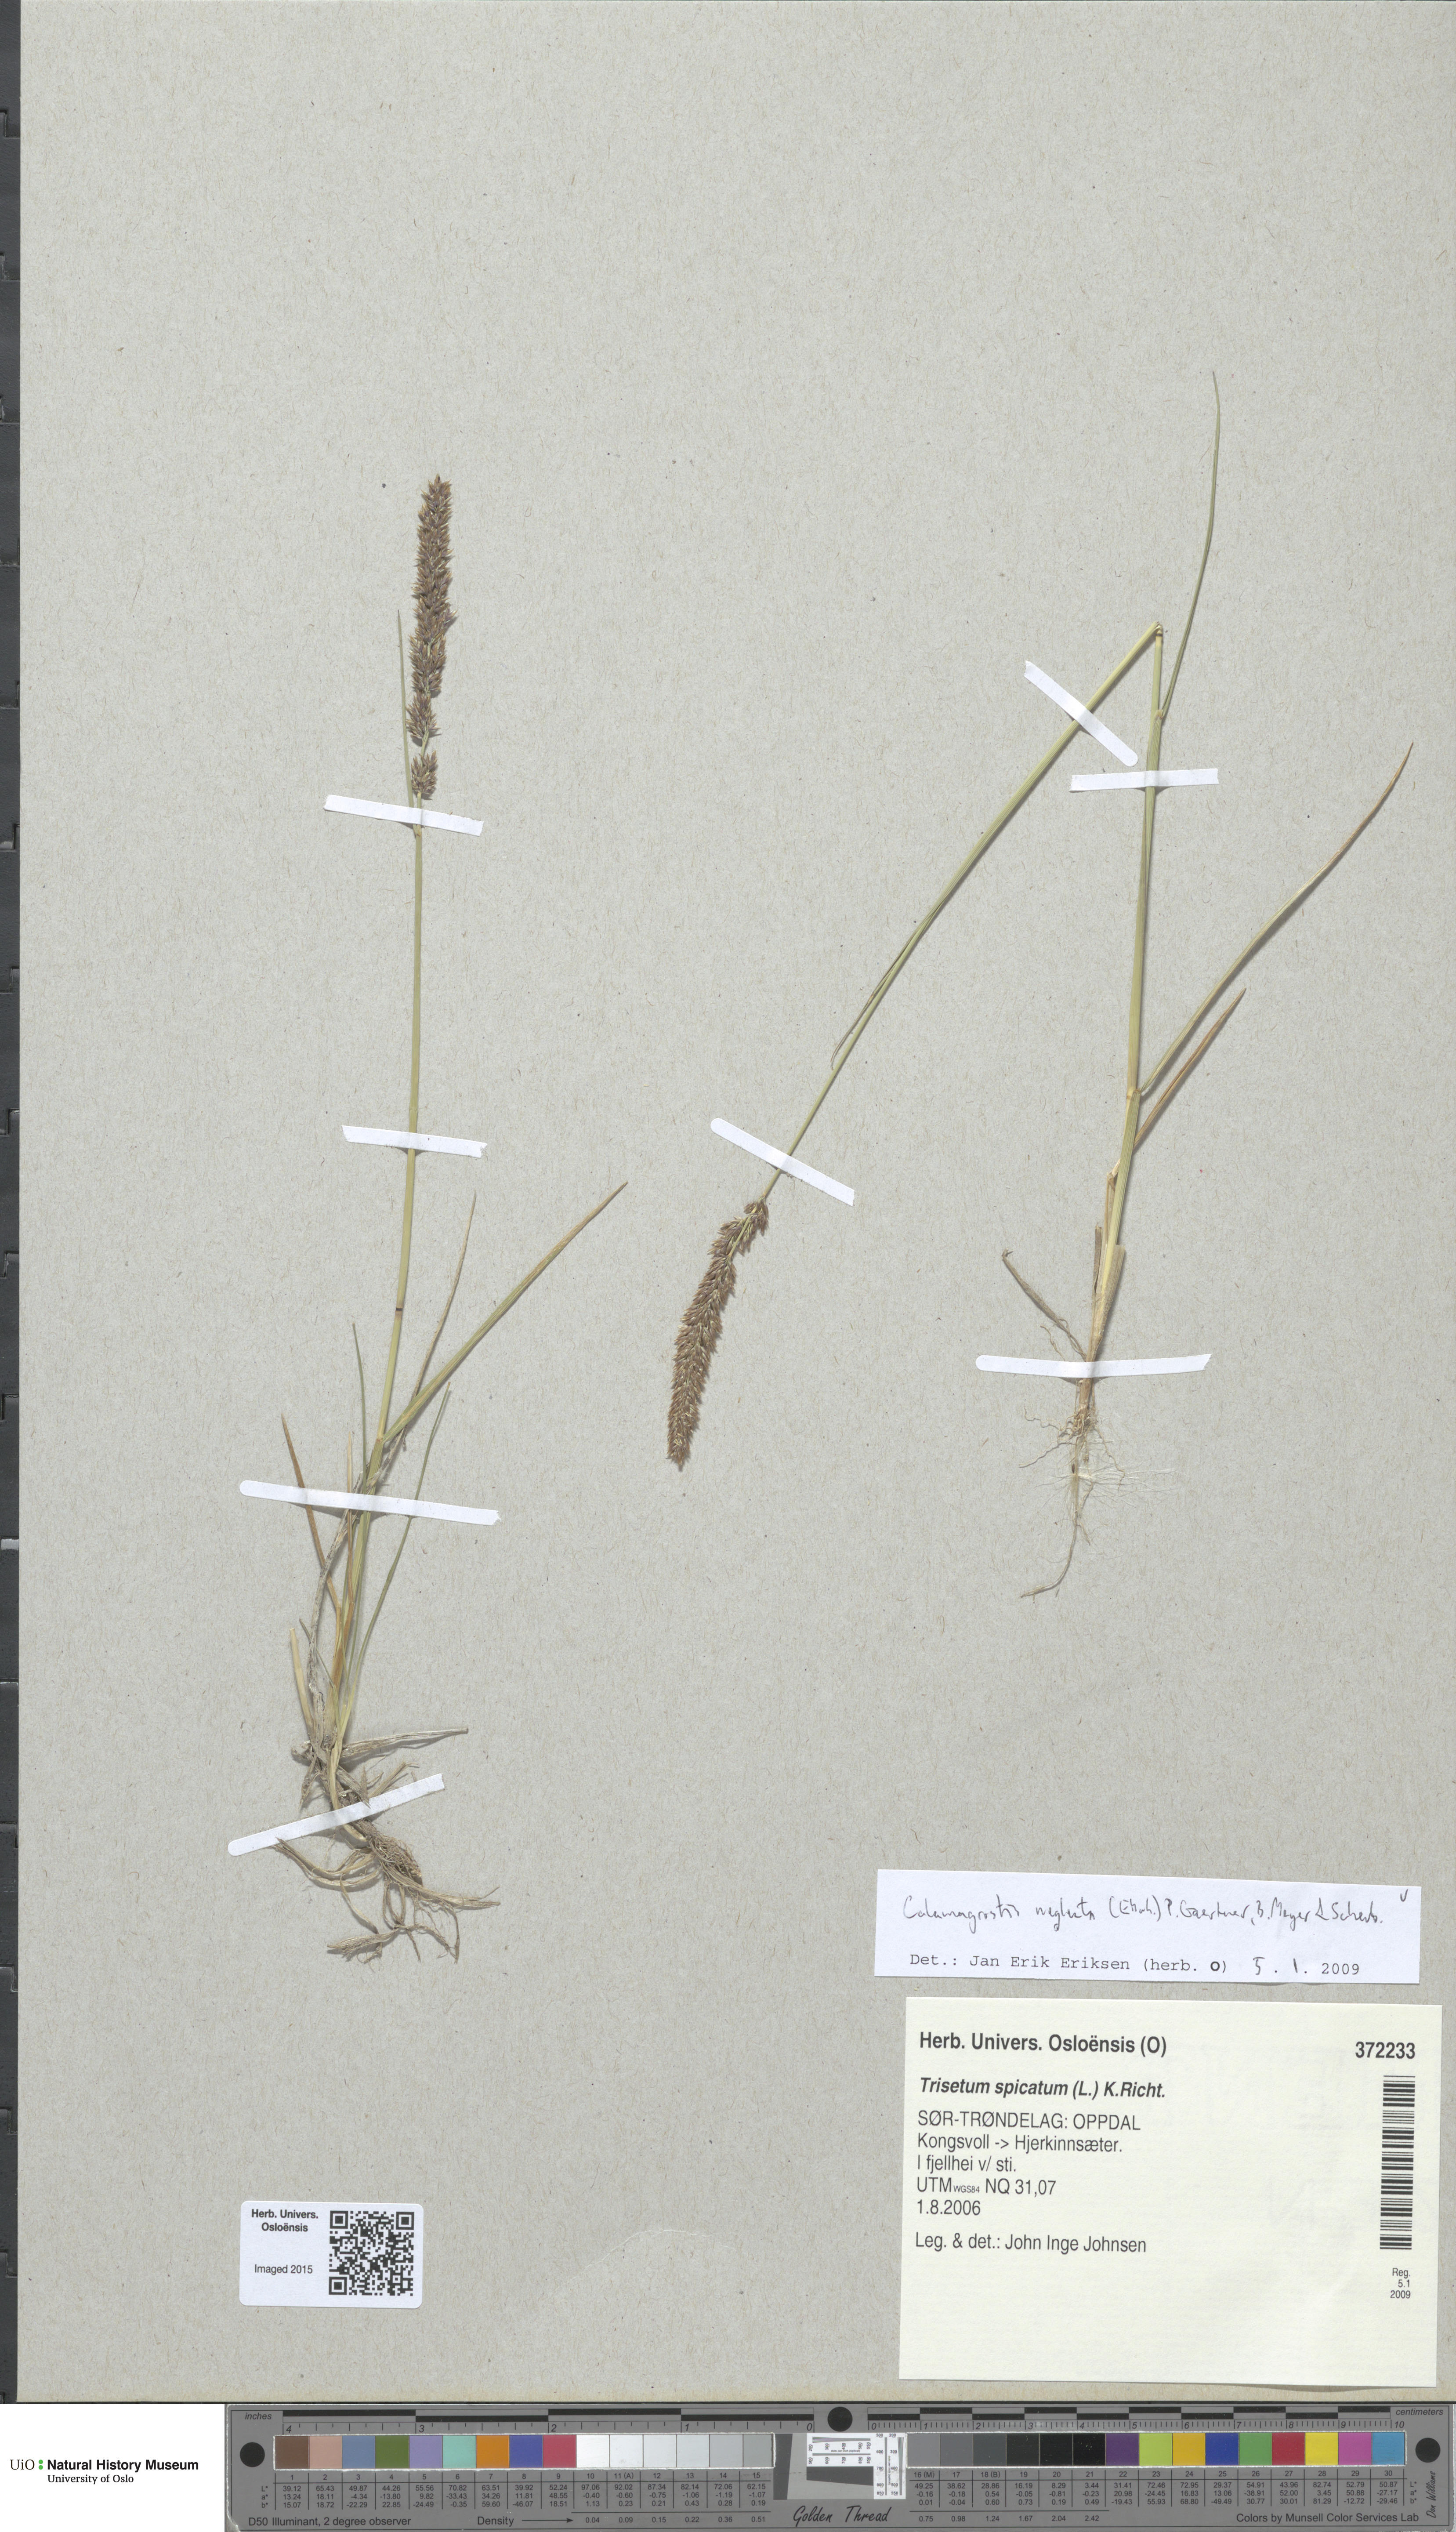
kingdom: Plantae
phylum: Tracheophyta
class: Liliopsida
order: Poales
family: Poaceae
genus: Achnatherum
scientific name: Achnatherum calamagrostis
